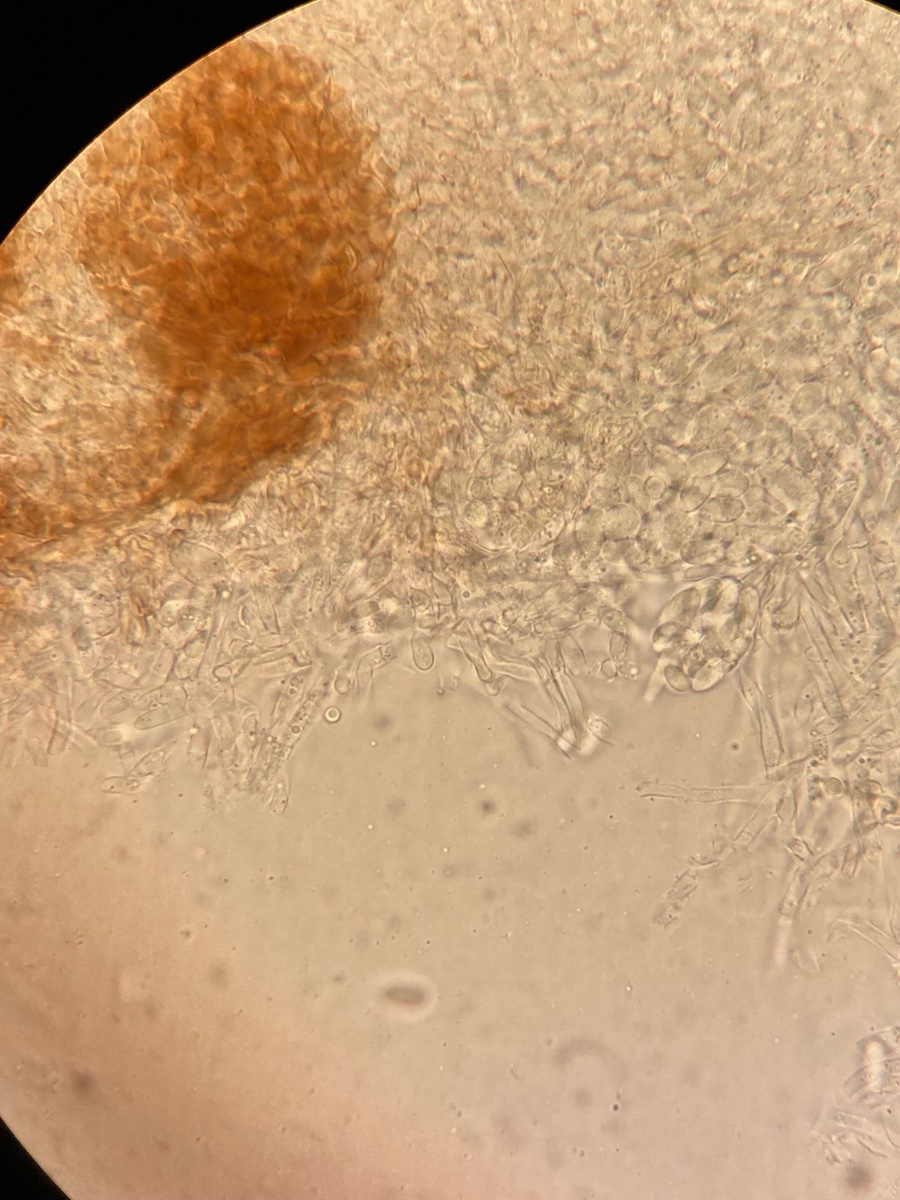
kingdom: Fungi
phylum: Ascomycota
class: Sordariomycetes
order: Hypocreales
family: Hypocreaceae
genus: Sepedonium
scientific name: Sepedonium tulasneanum
